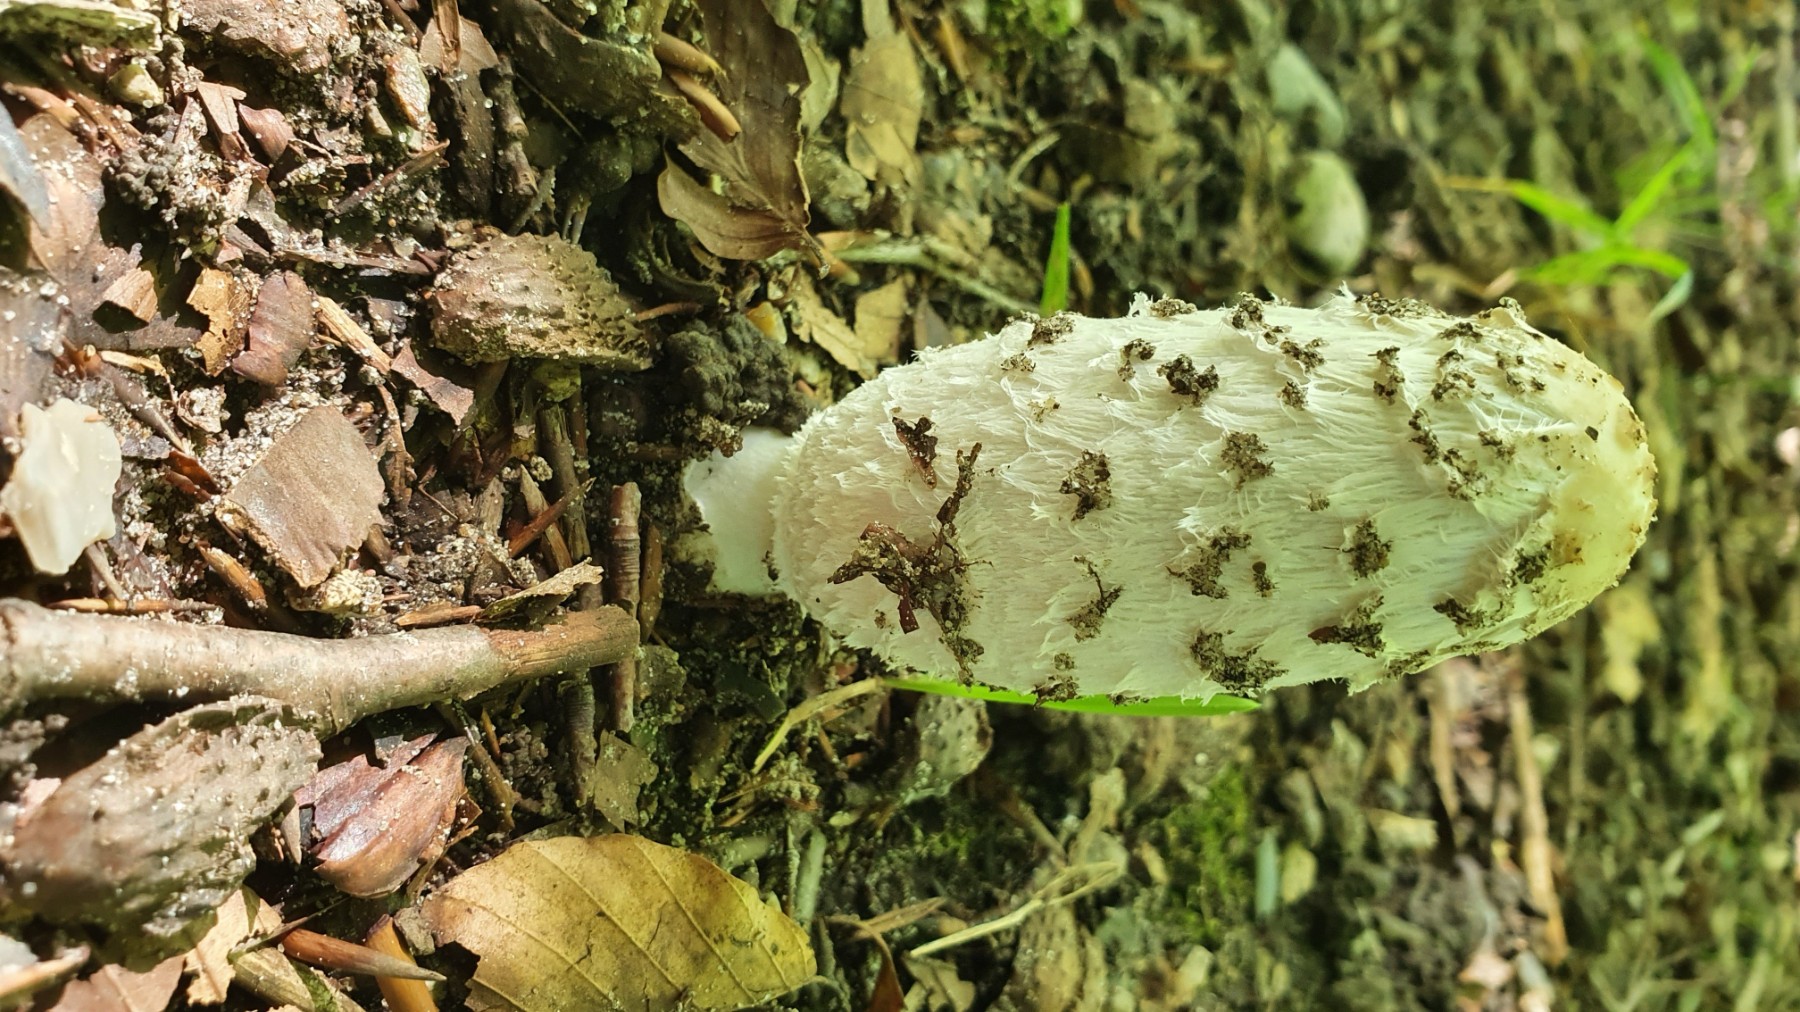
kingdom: Fungi
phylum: Basidiomycota
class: Agaricomycetes
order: Agaricales
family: Agaricaceae
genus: Coprinus
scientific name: Coprinus comatus
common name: stor parykhat
